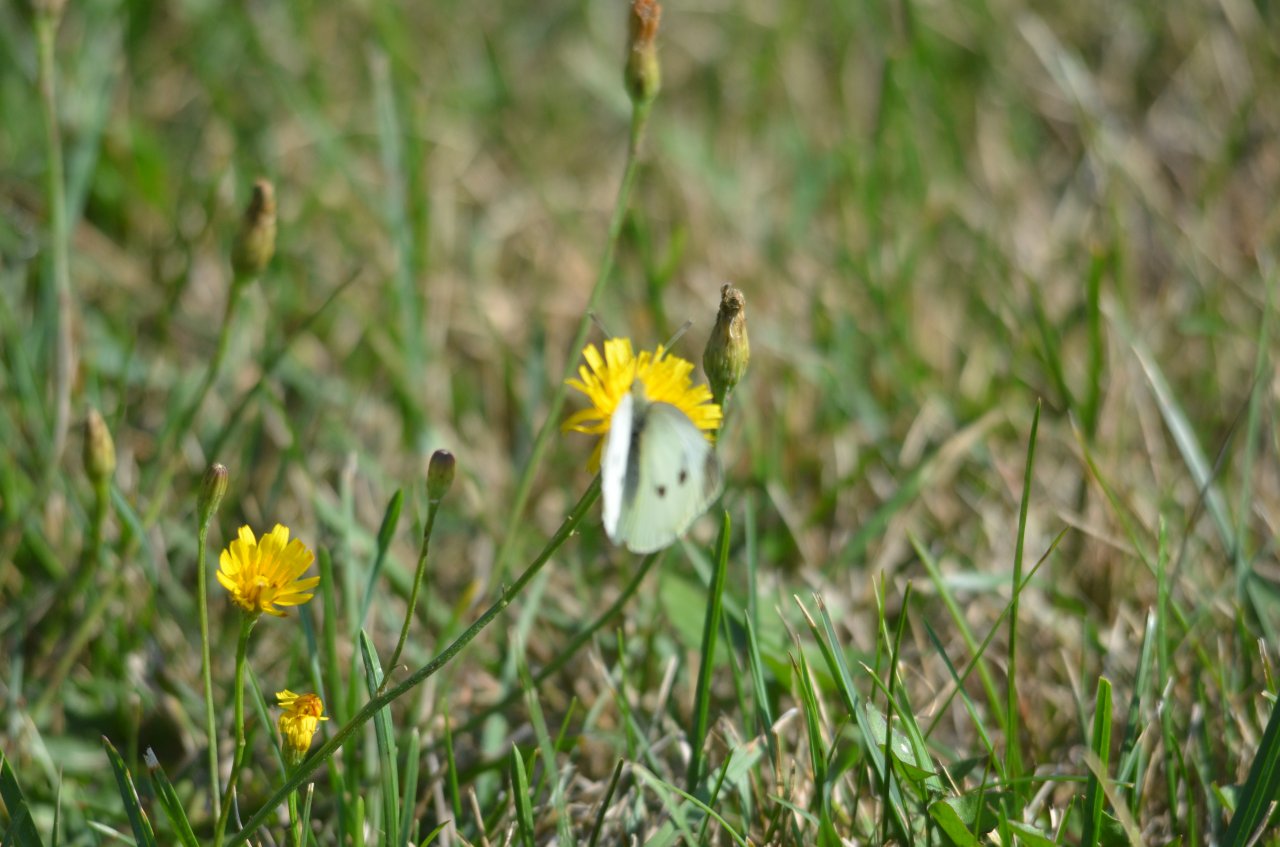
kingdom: Animalia
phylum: Arthropoda
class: Insecta
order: Lepidoptera
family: Pieridae
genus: Pieris
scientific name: Pieris rapae
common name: Cabbage White
